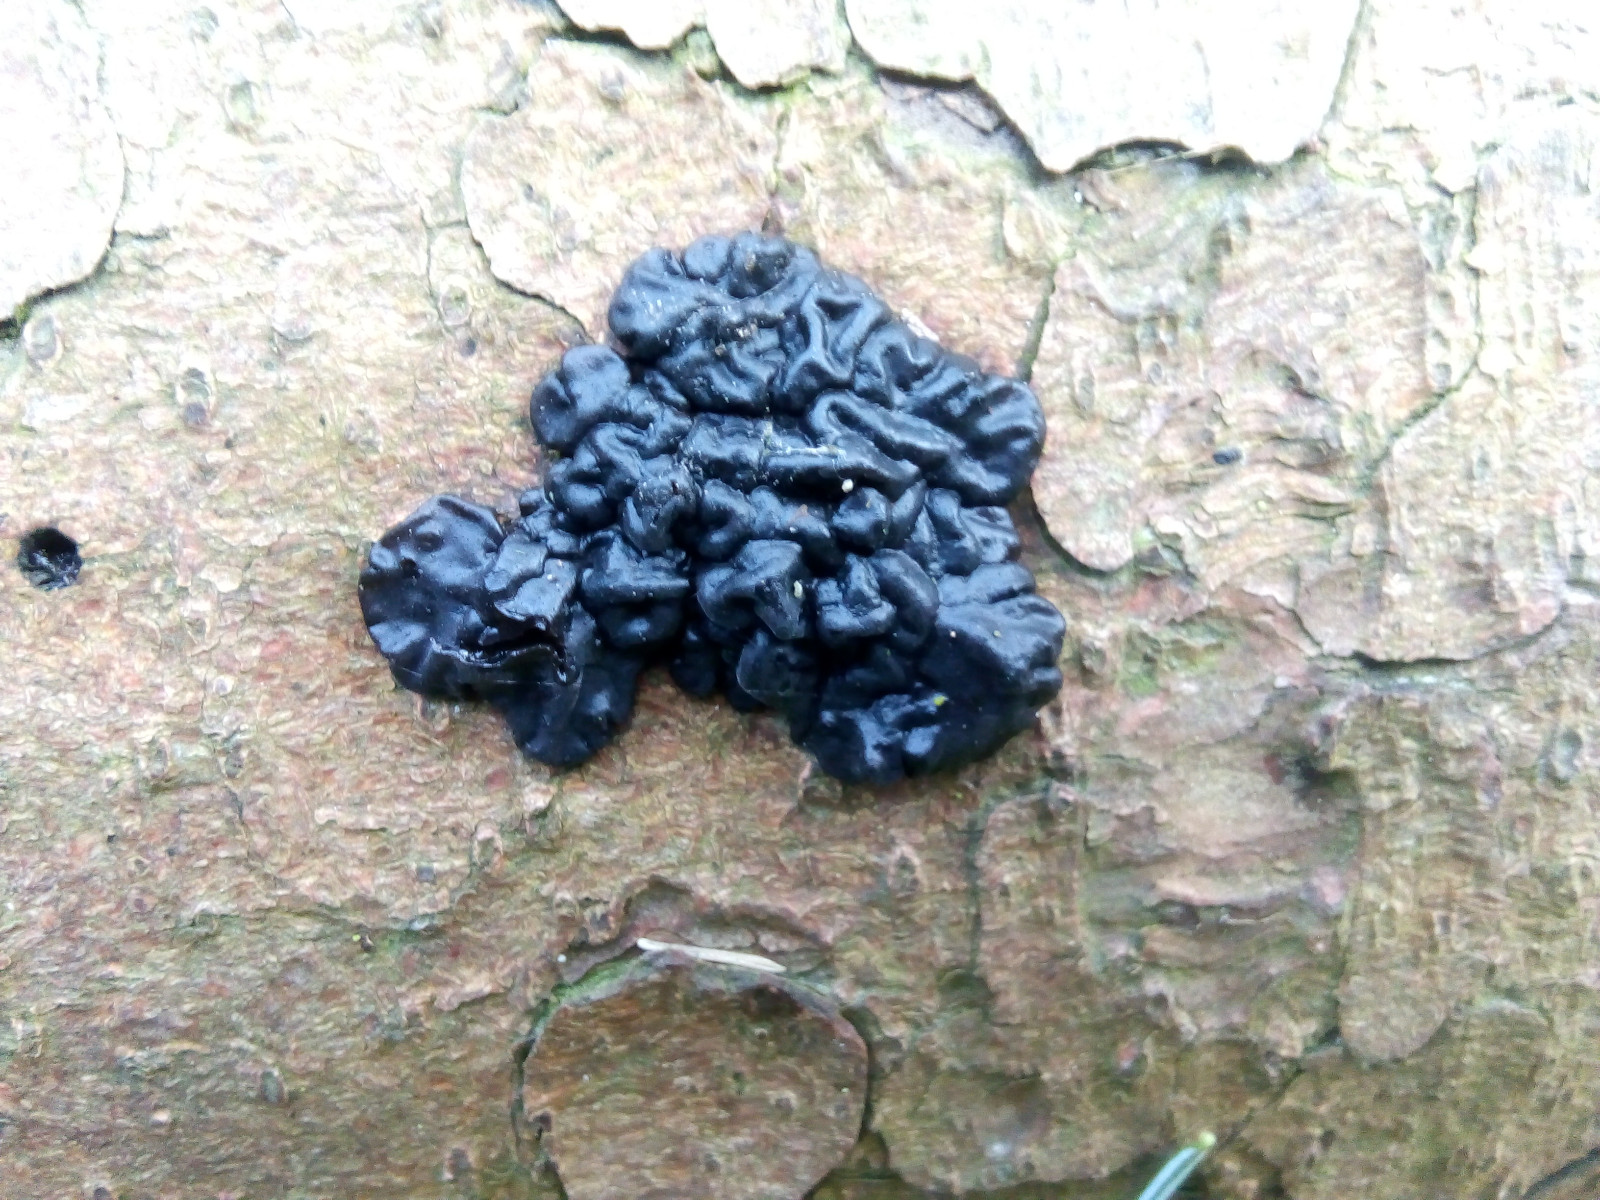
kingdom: Fungi
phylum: Basidiomycota
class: Agaricomycetes
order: Auriculariales
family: Auriculariaceae
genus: Exidia
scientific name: Exidia pithya
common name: gran-bævretop
